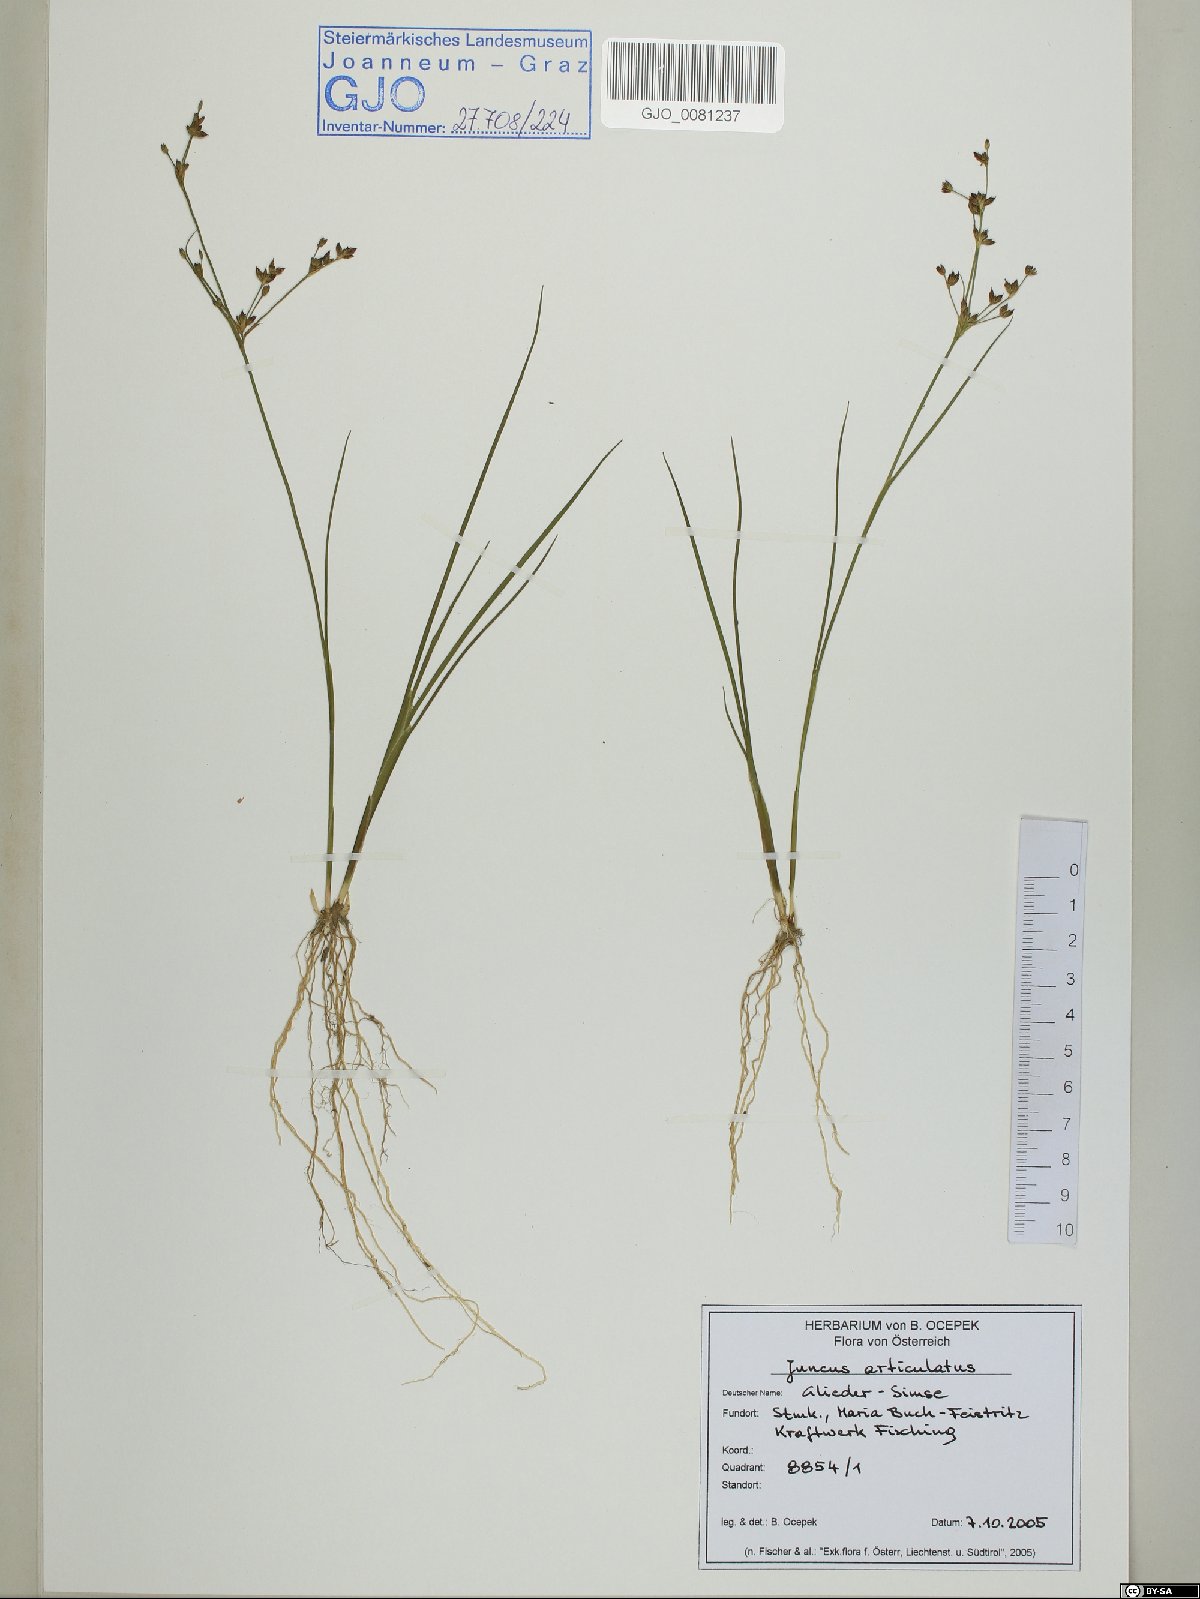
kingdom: Plantae
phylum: Tracheophyta
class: Liliopsida
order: Poales
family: Juncaceae
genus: Juncus
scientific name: Juncus articulatus
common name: Jointed rush
